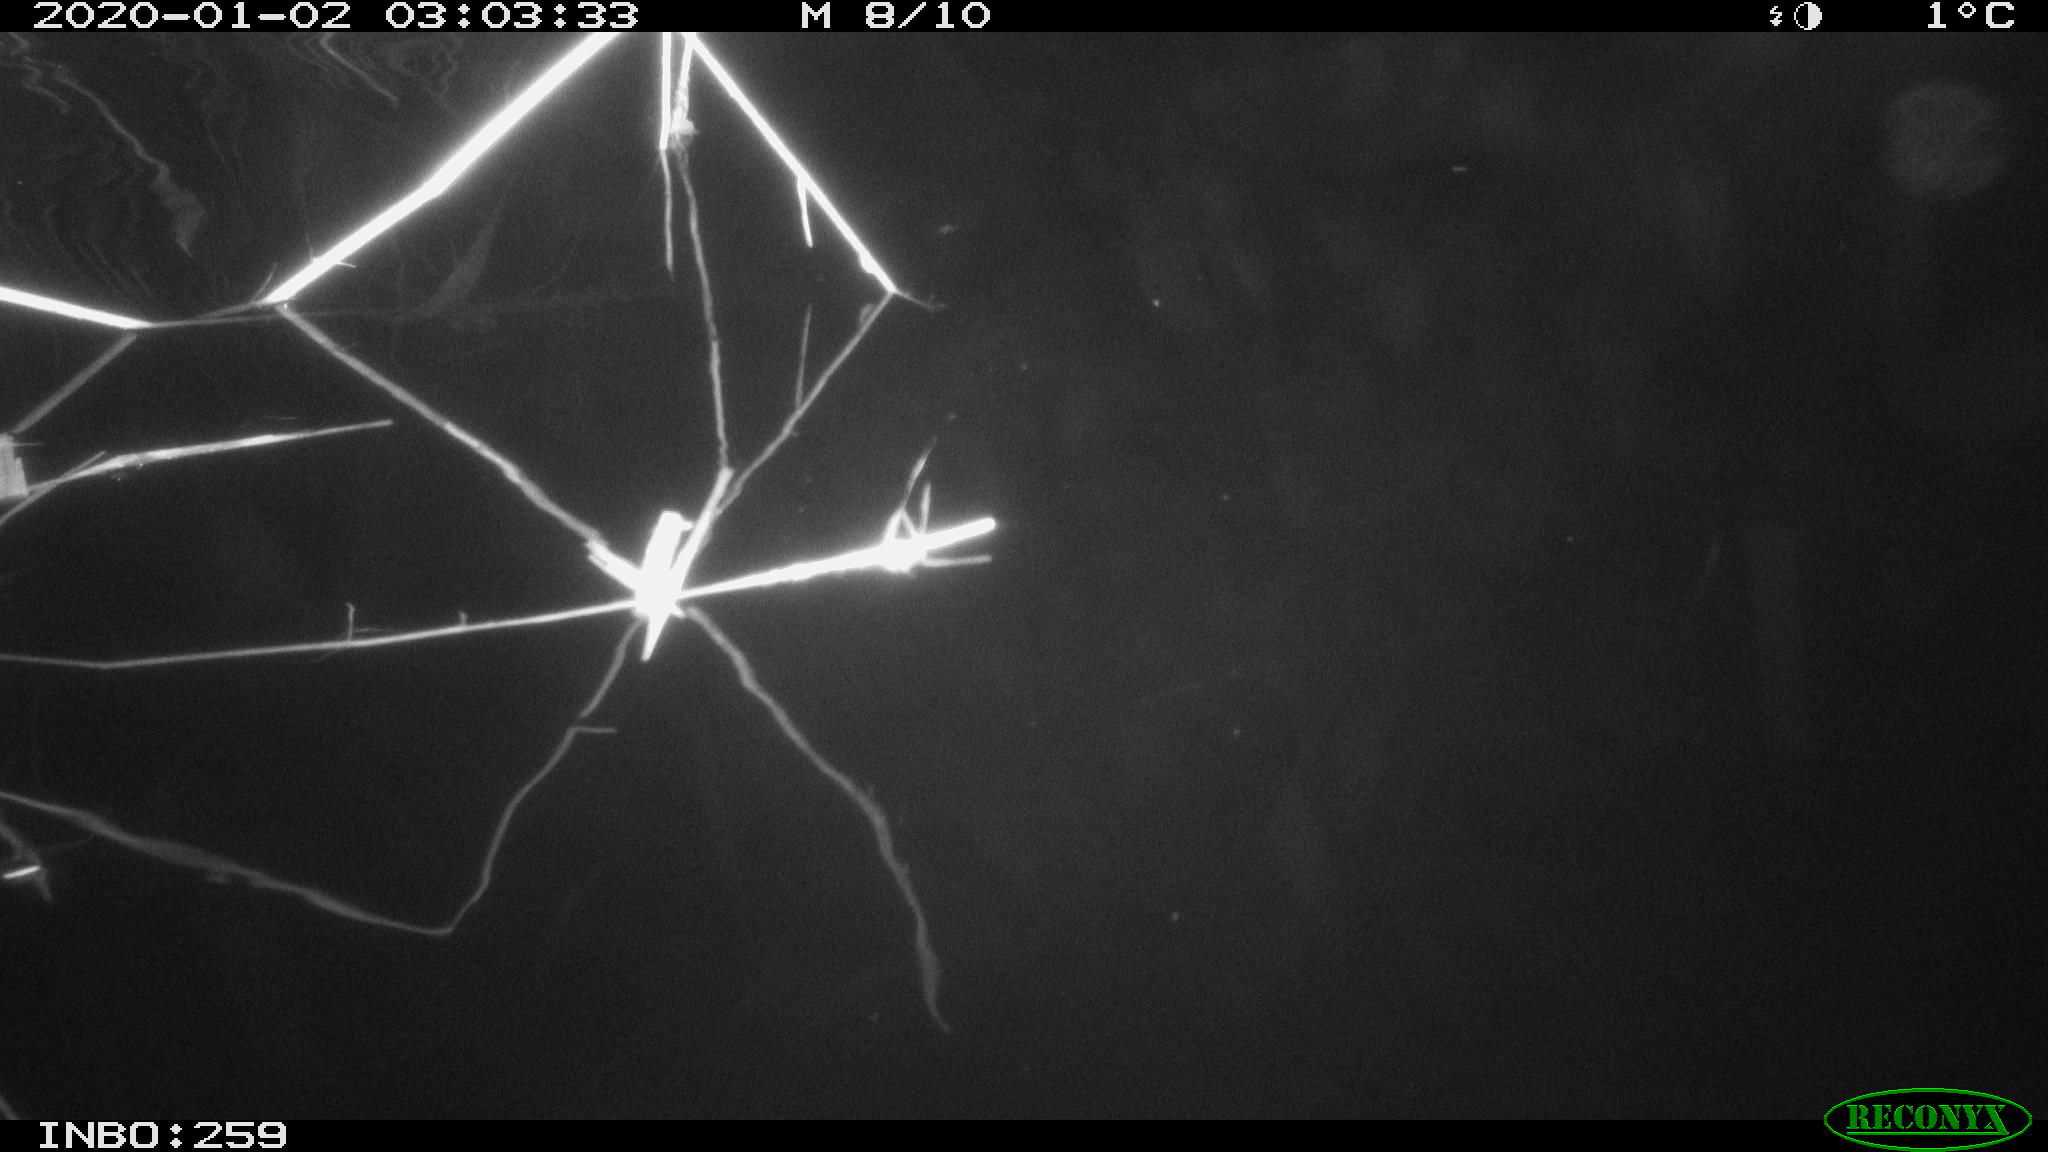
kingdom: Animalia
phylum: Chordata
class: Mammalia
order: Rodentia
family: Cricetidae
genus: Ondatra
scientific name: Ondatra zibethicus
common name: Muskrat
